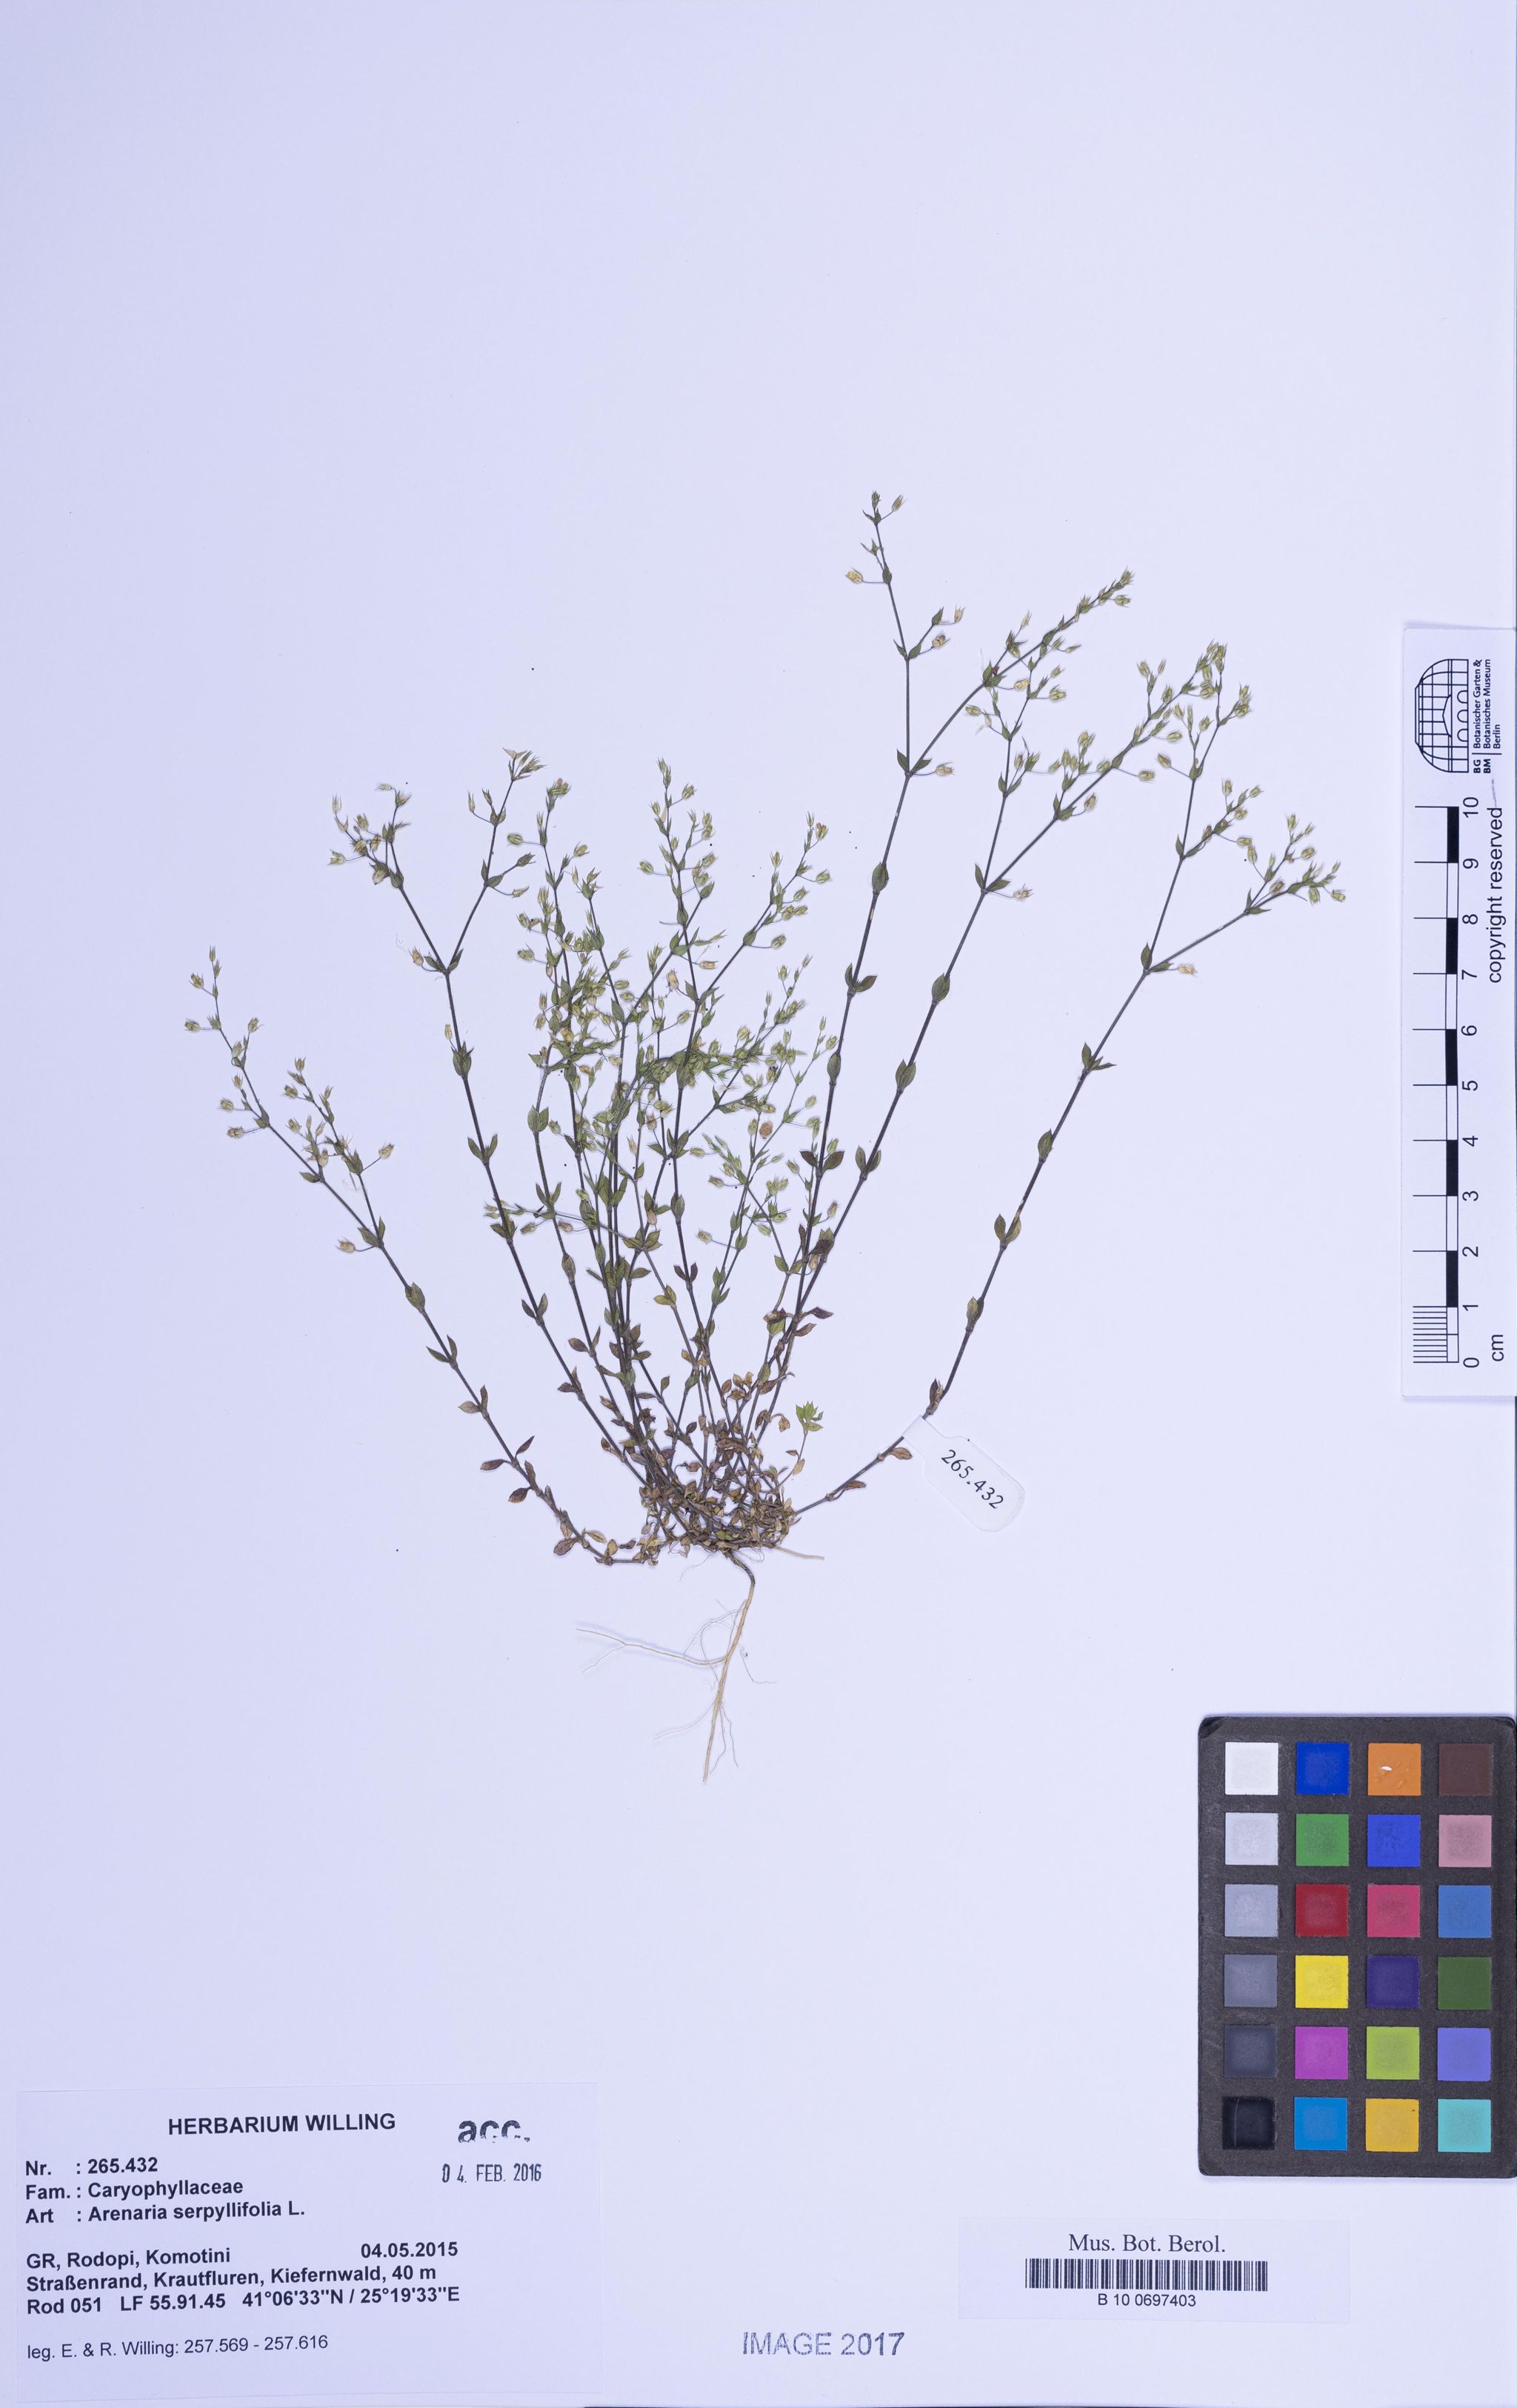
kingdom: Plantae
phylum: Tracheophyta
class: Magnoliopsida
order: Caryophyllales
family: Caryophyllaceae
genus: Arenaria
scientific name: Arenaria serpyllifolia
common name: Thyme-leaved sandwort
